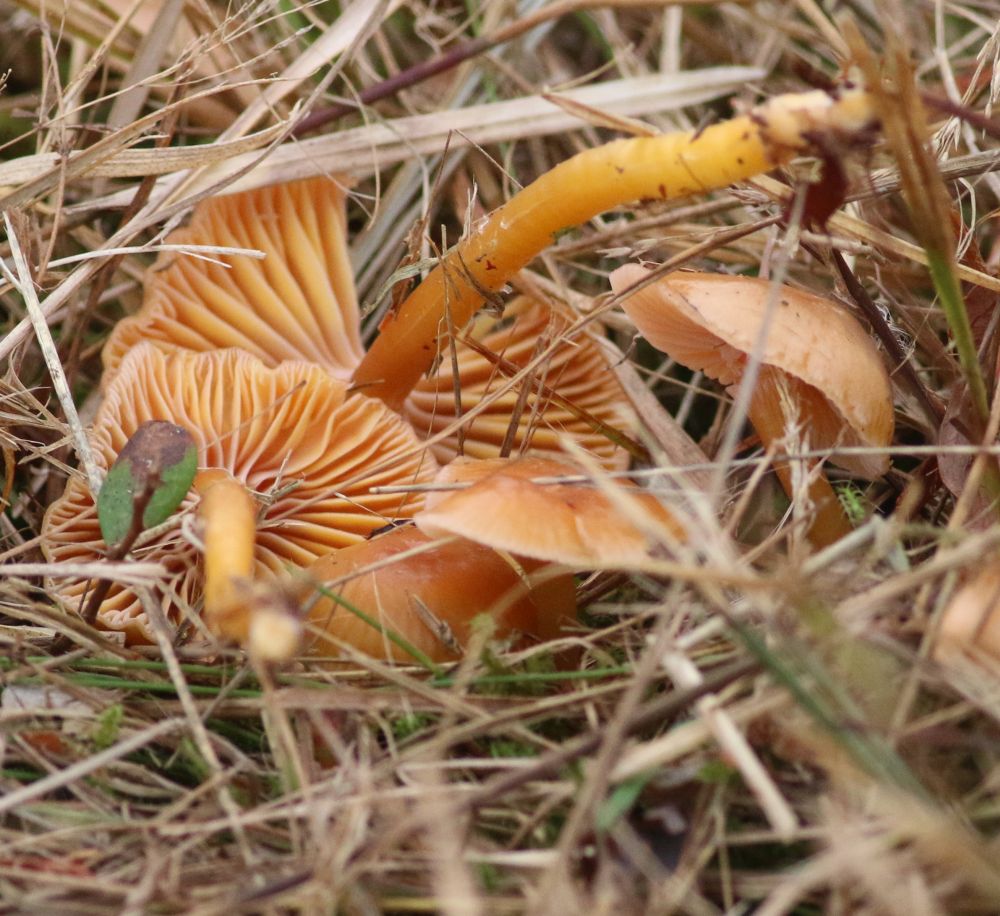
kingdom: Fungi
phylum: Basidiomycota
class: Agaricomycetes
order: Agaricales
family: Hygrophoraceae
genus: Gliophorus
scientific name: Gliophorus laetus
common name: brusk-vokshat
